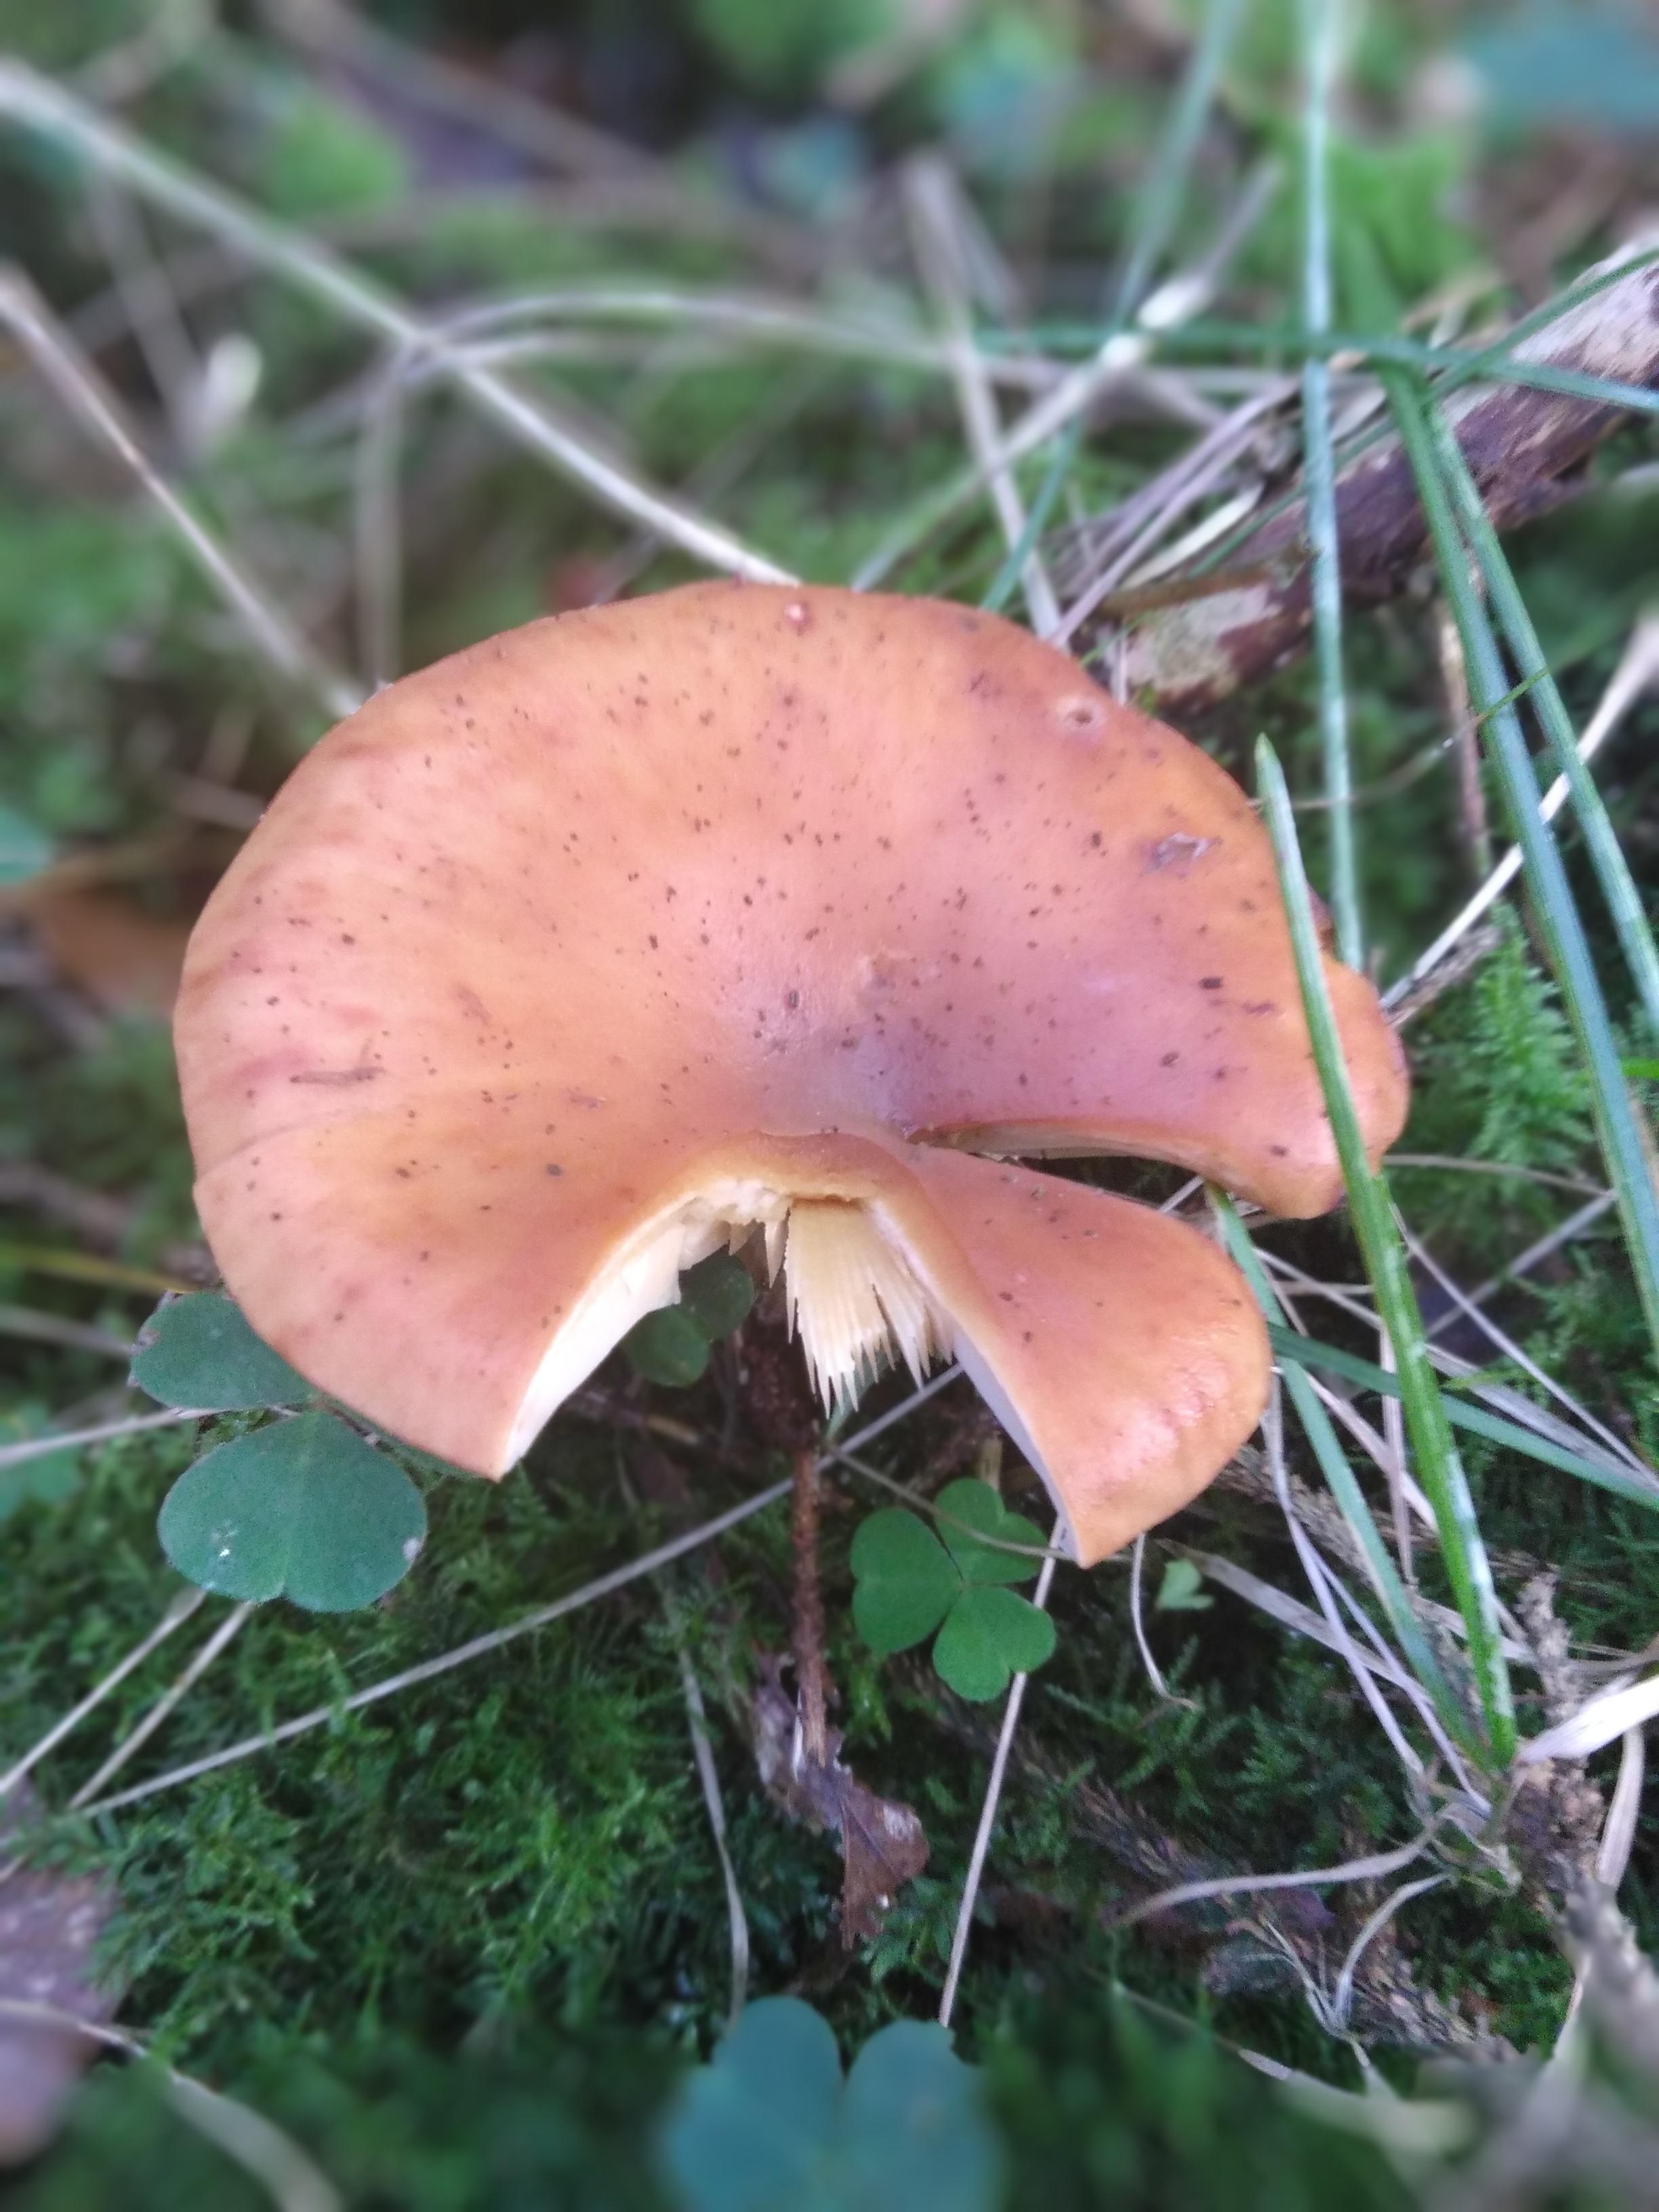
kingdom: Fungi
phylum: Basidiomycota
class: Agaricomycetes
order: Agaricales
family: Tricholomataceae
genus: Paralepista
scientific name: Paralepista flaccida
